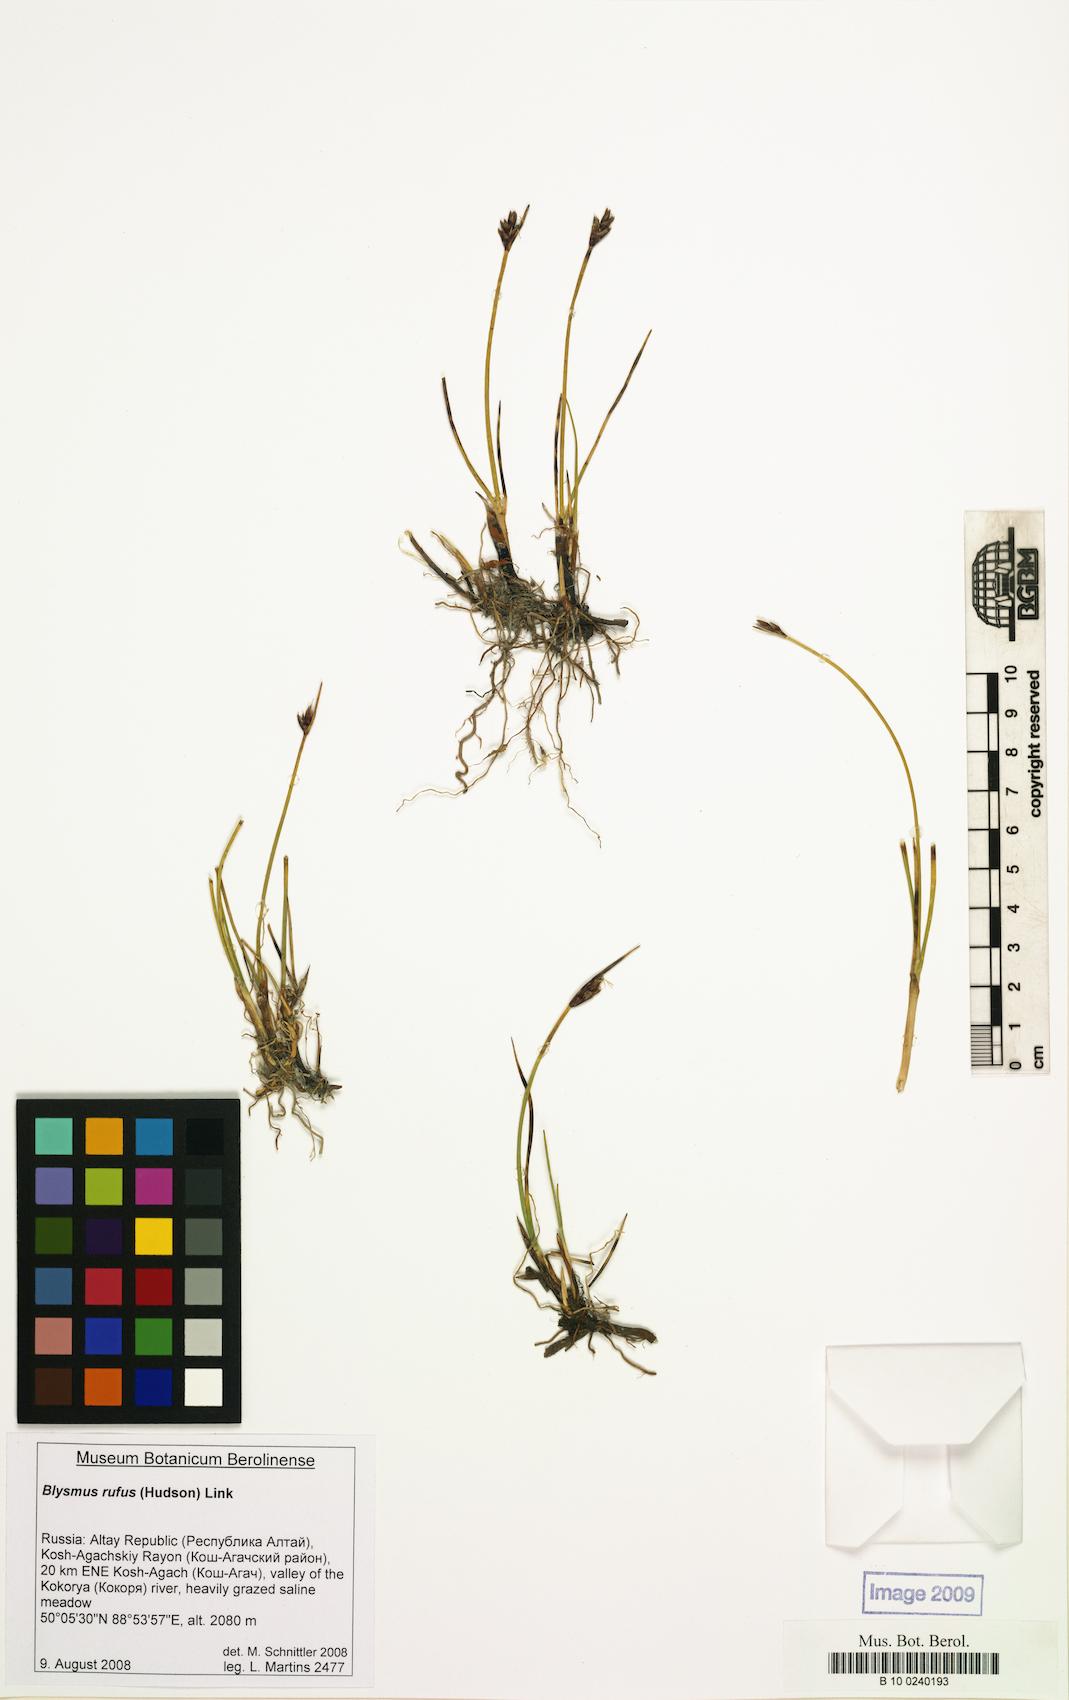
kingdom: Plantae
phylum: Tracheophyta
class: Liliopsida
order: Poales
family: Cyperaceae
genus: Blysmus
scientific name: Blysmus rufus
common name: Saltmarsh flat-sedge
